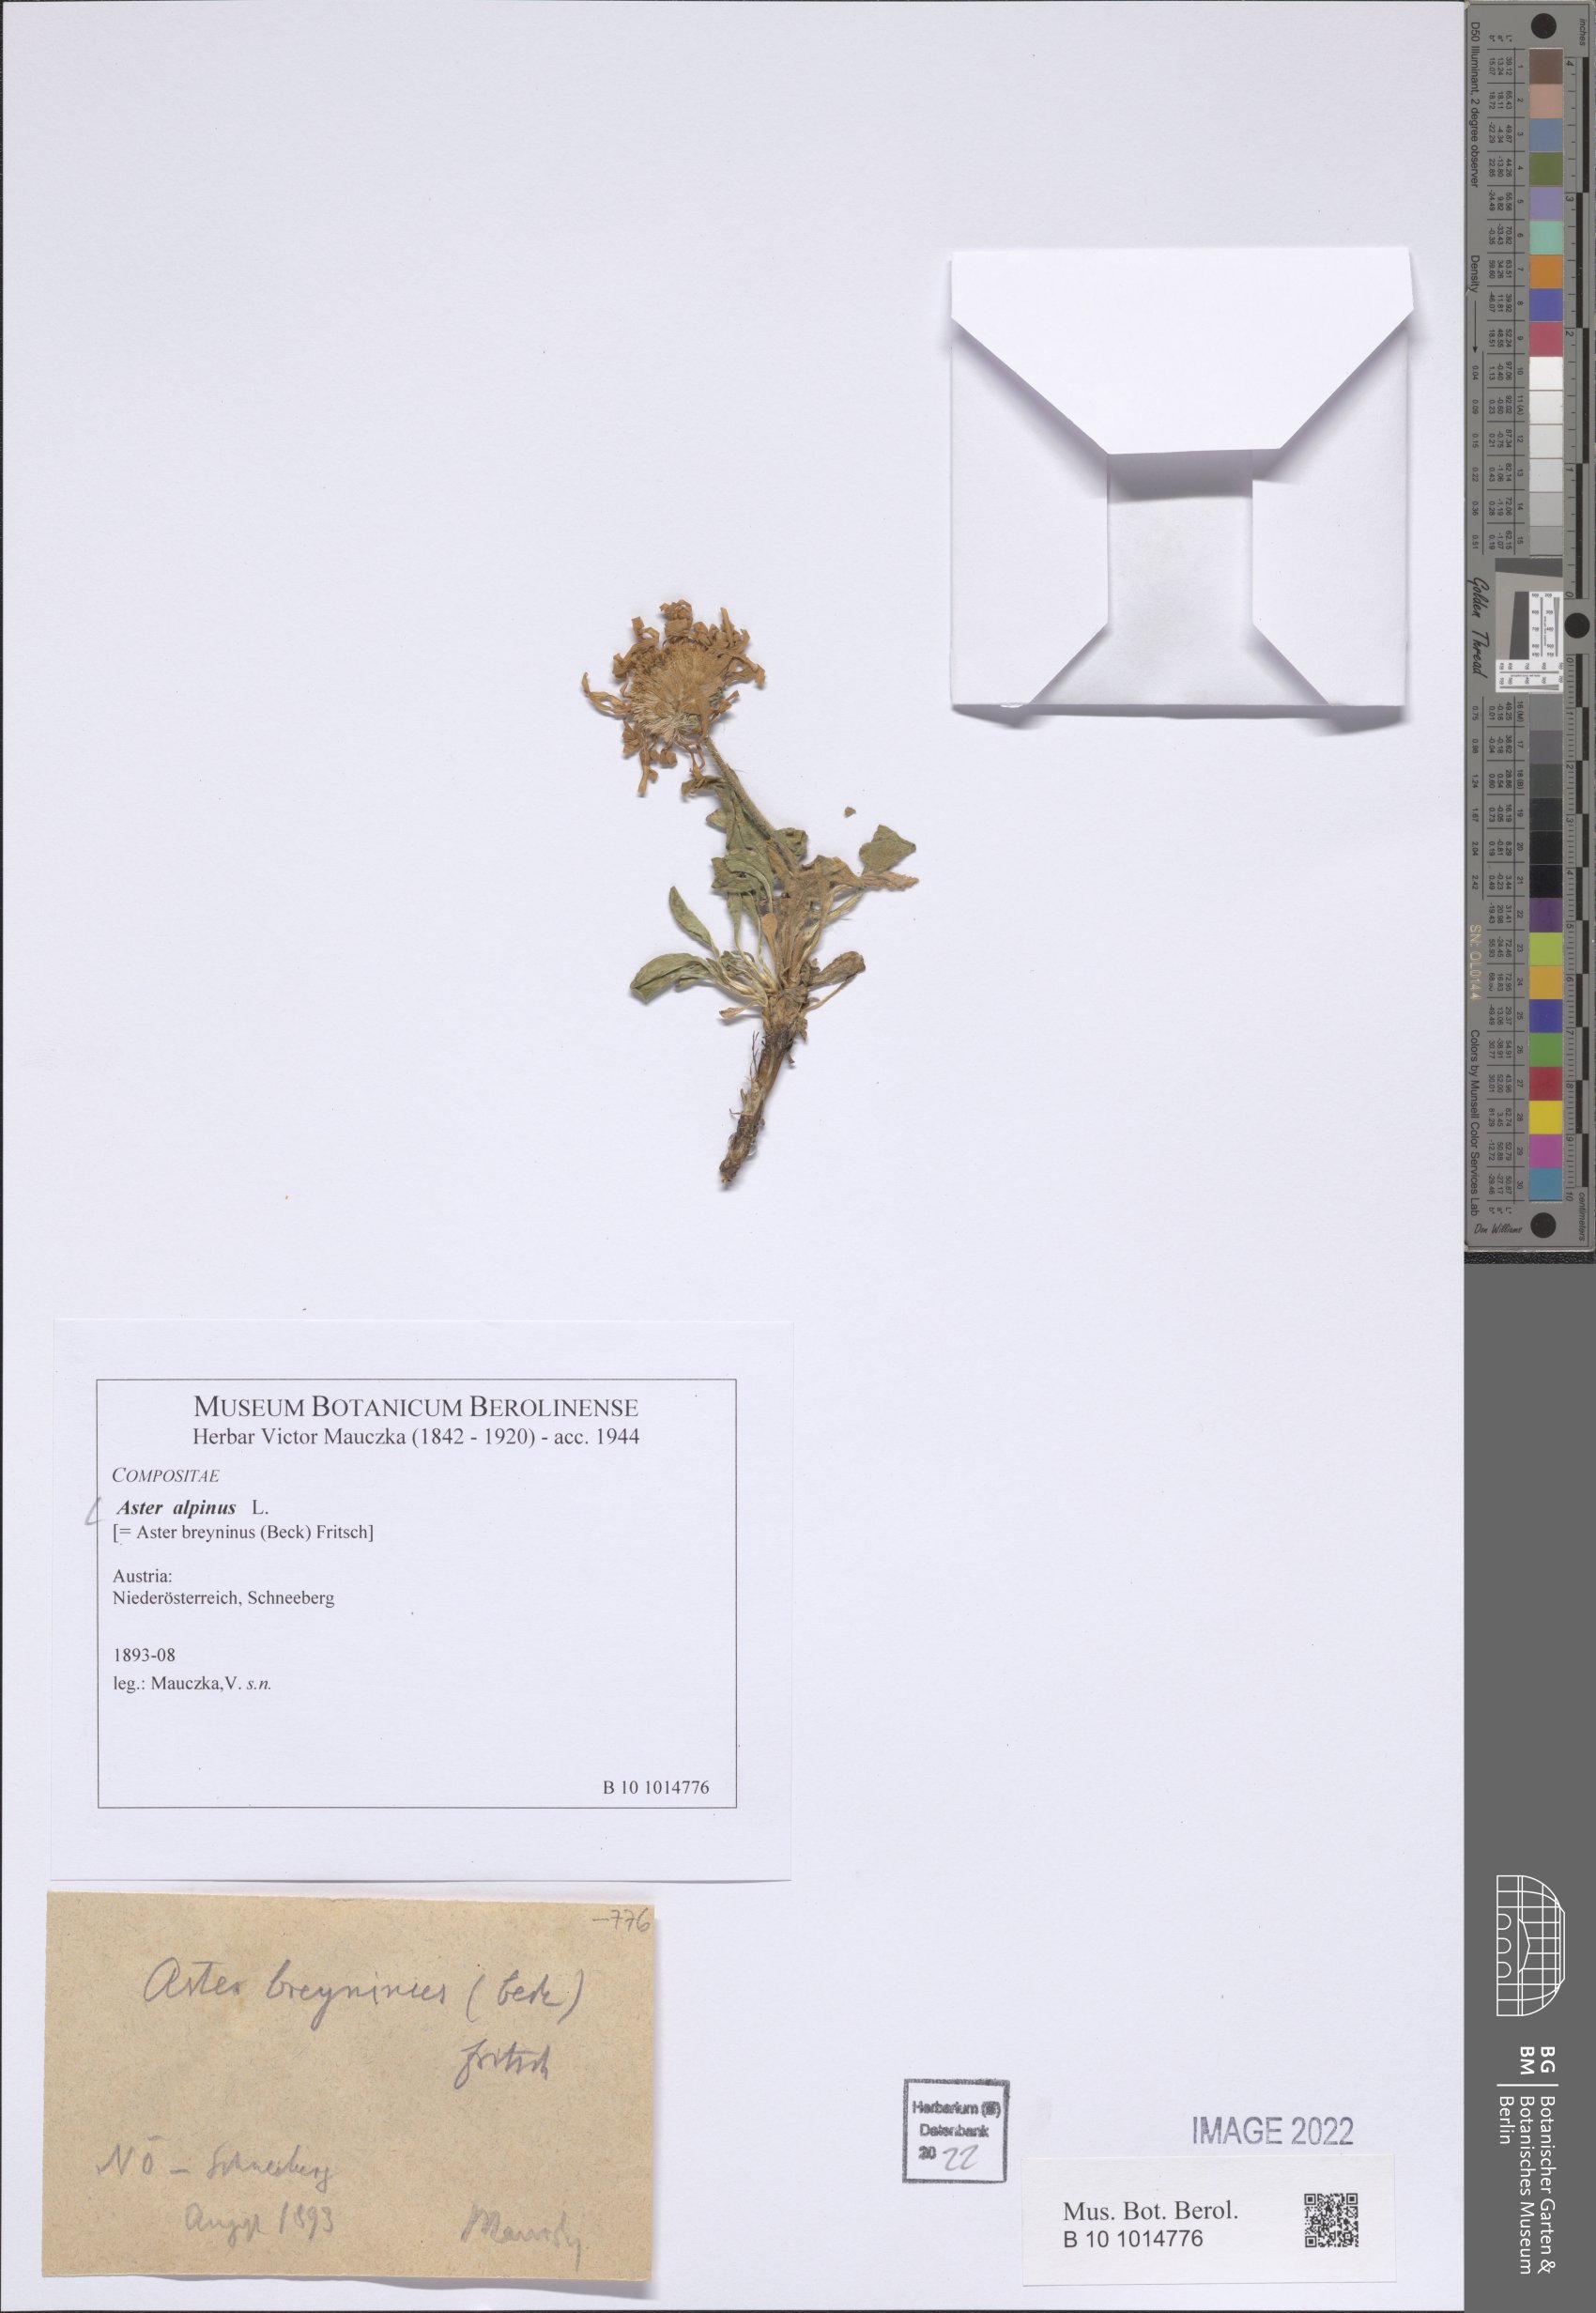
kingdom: Plantae
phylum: Tracheophyta
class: Magnoliopsida
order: Asterales
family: Asteraceae
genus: Aster
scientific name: Aster alpinus
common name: Alpine aster
